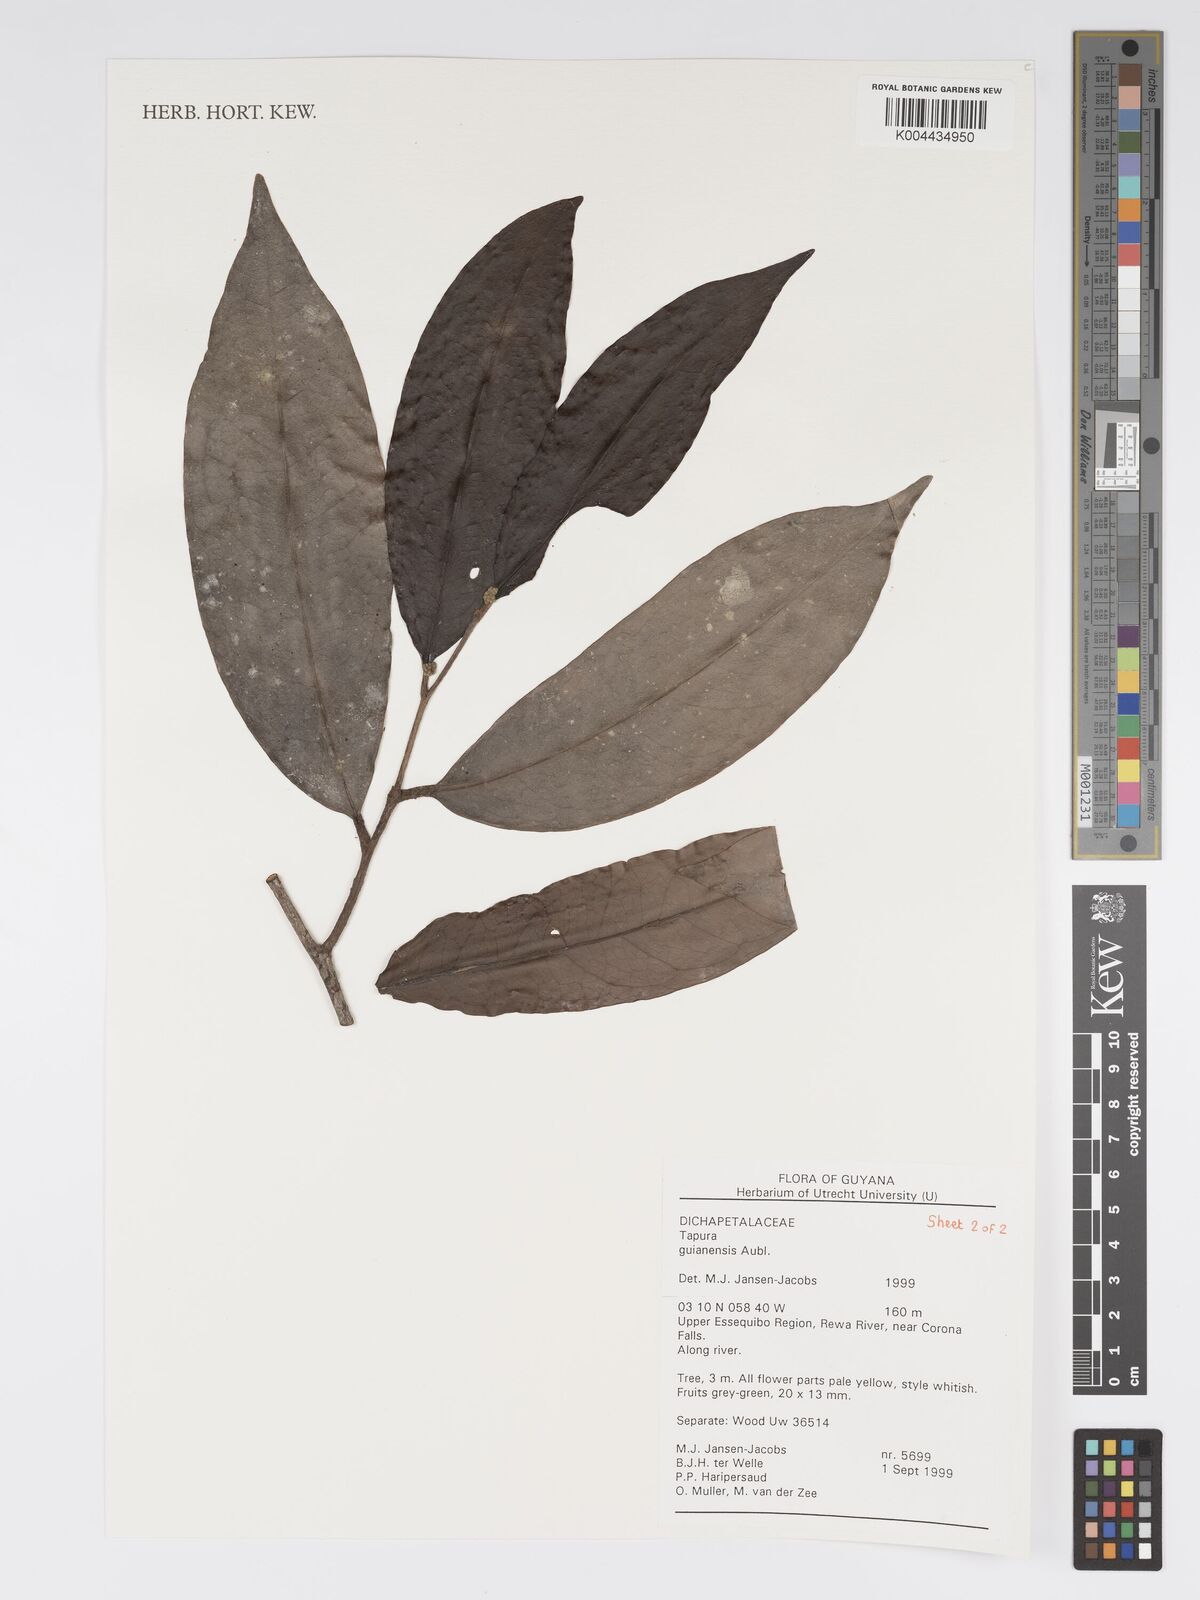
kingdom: Plantae
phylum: Tracheophyta
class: Magnoliopsida
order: Malpighiales
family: Dichapetalaceae
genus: Tapura
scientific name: Tapura guianensis
